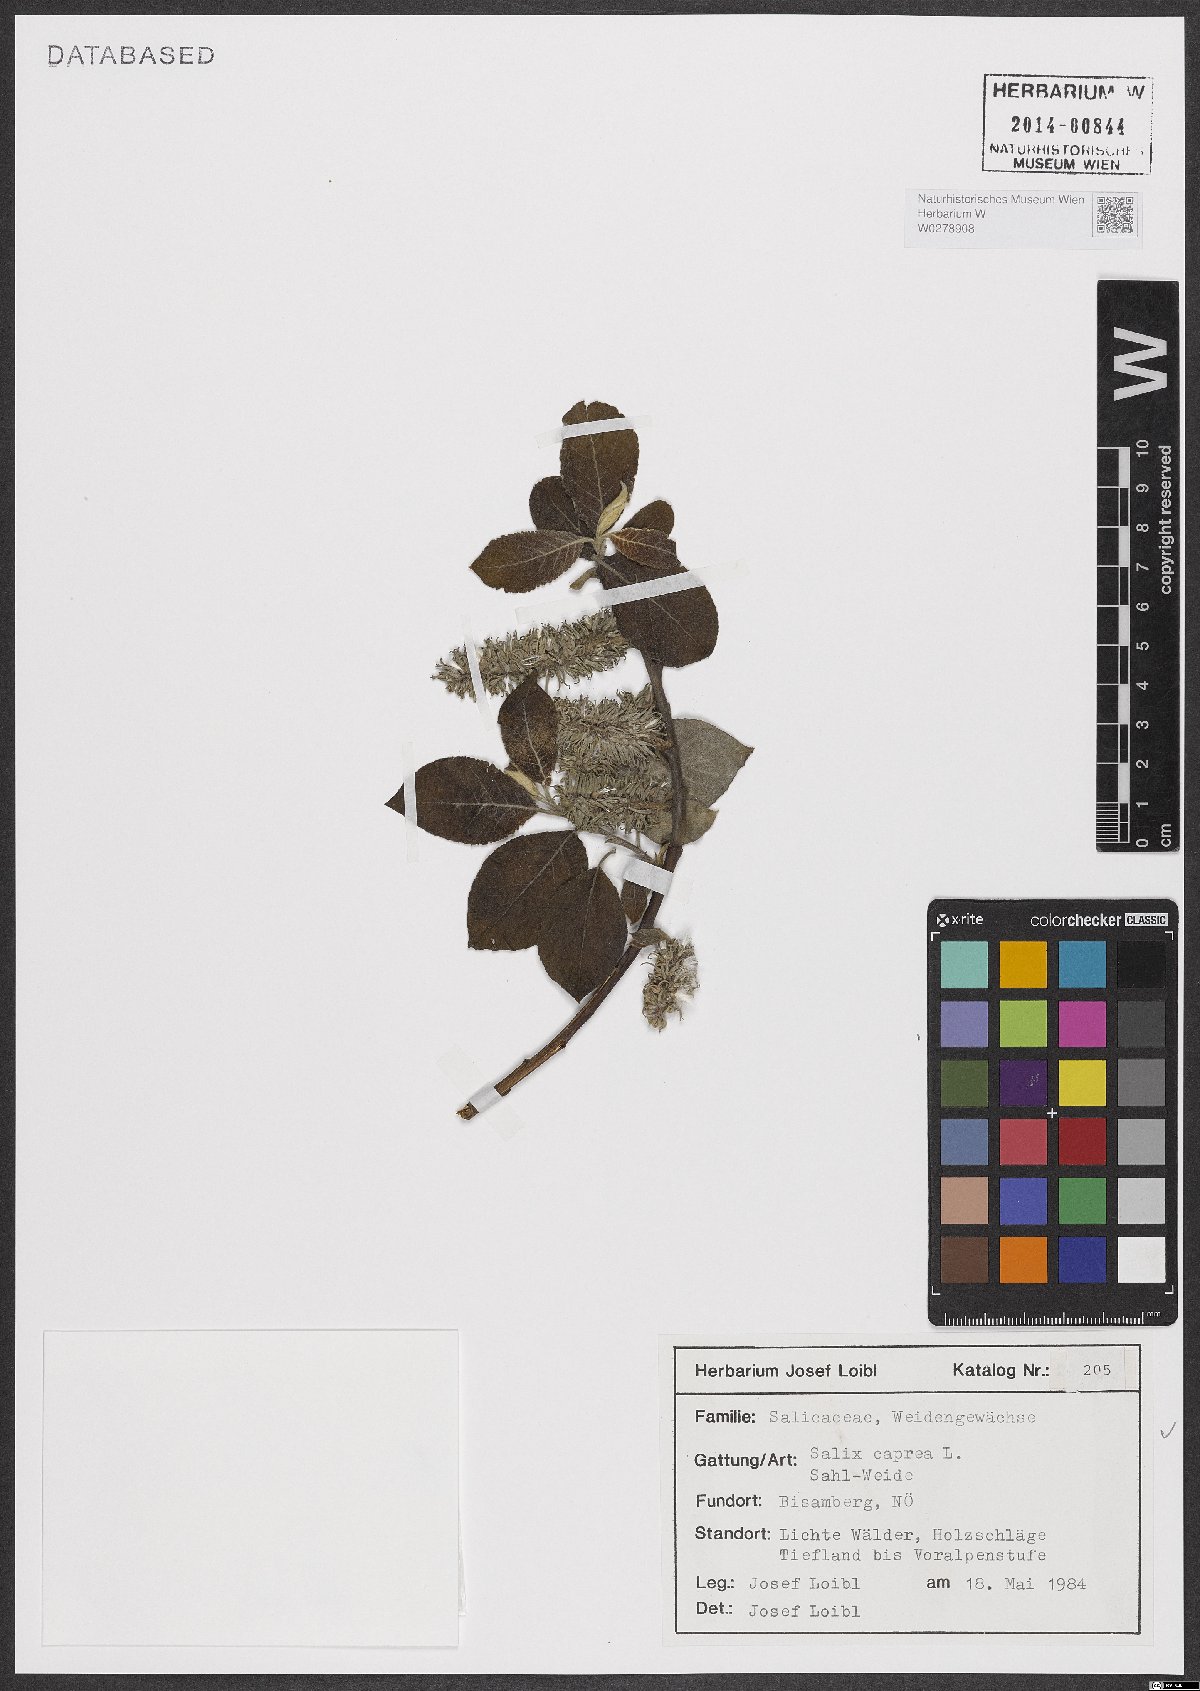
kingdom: Plantae
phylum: Tracheophyta
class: Magnoliopsida
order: Malpighiales
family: Salicaceae
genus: Salix
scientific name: Salix caprea
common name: Goat willow
